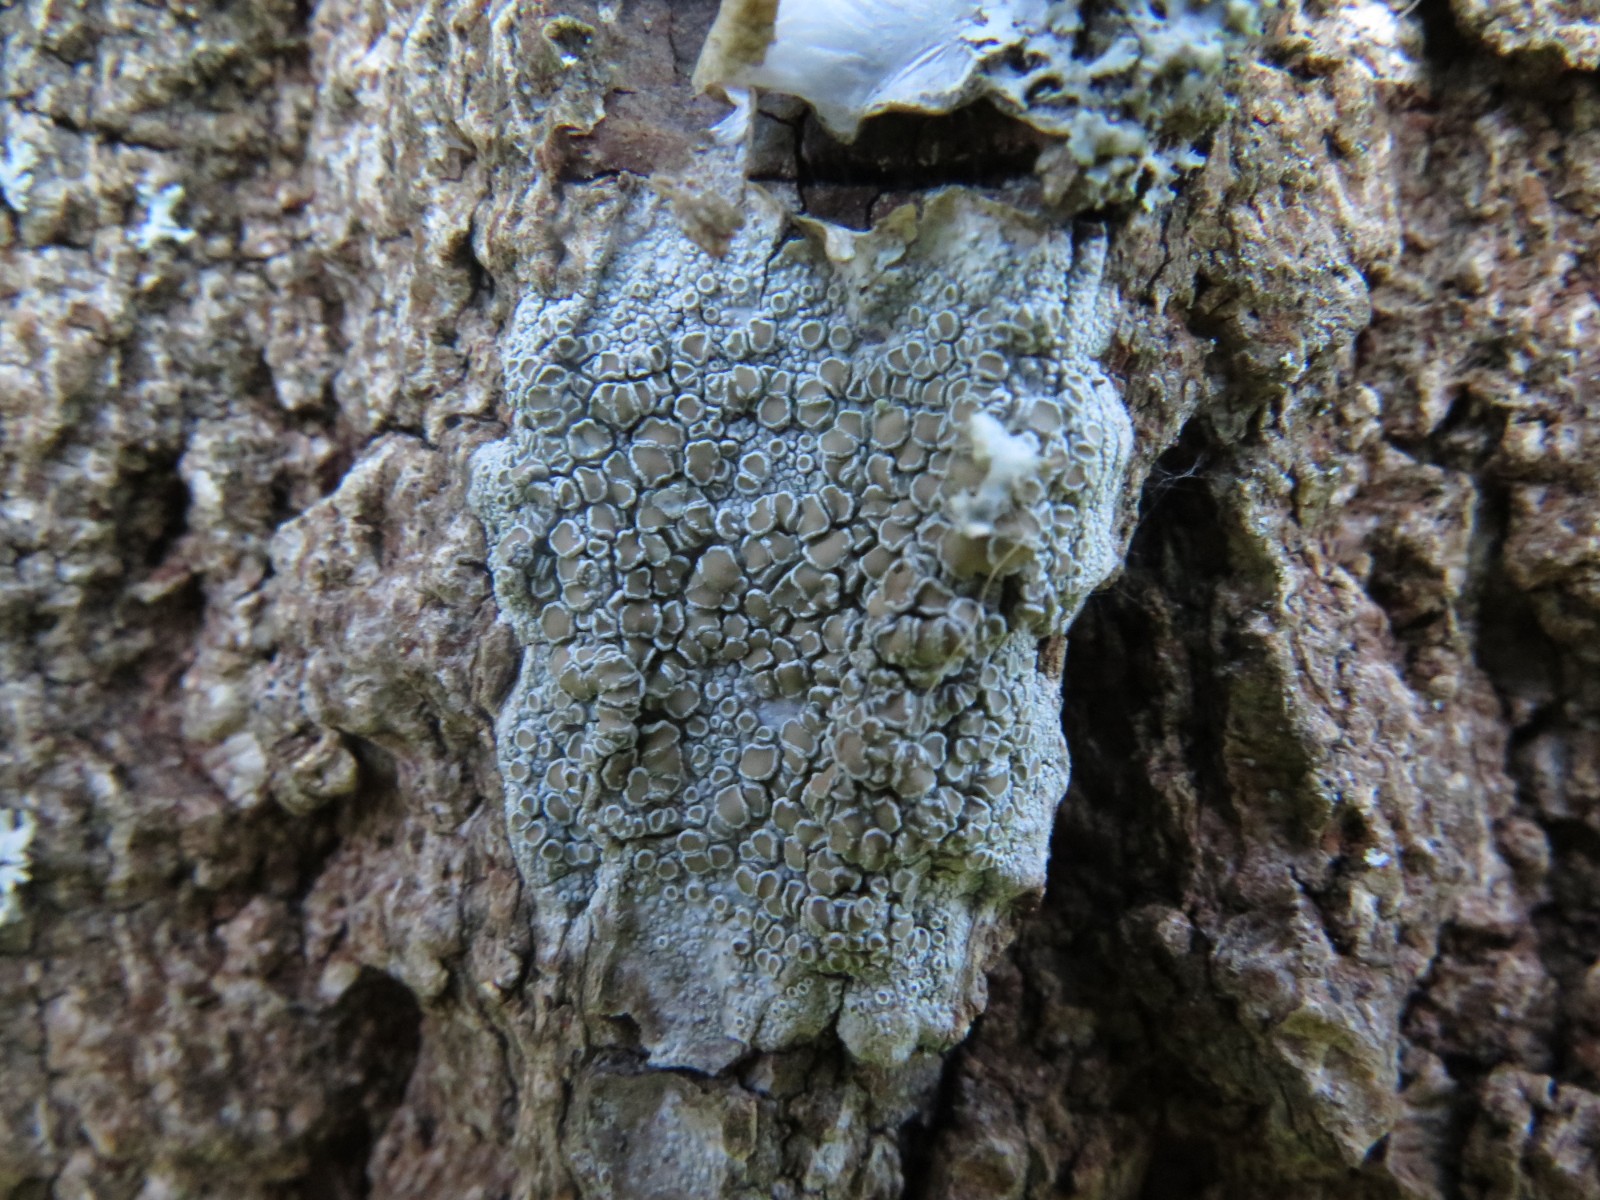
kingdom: Fungi
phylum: Ascomycota
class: Lecanoromycetes
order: Lecanorales
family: Lecanoraceae
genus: Lecanora
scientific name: Lecanora chlarotera
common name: brun kantskivelav
